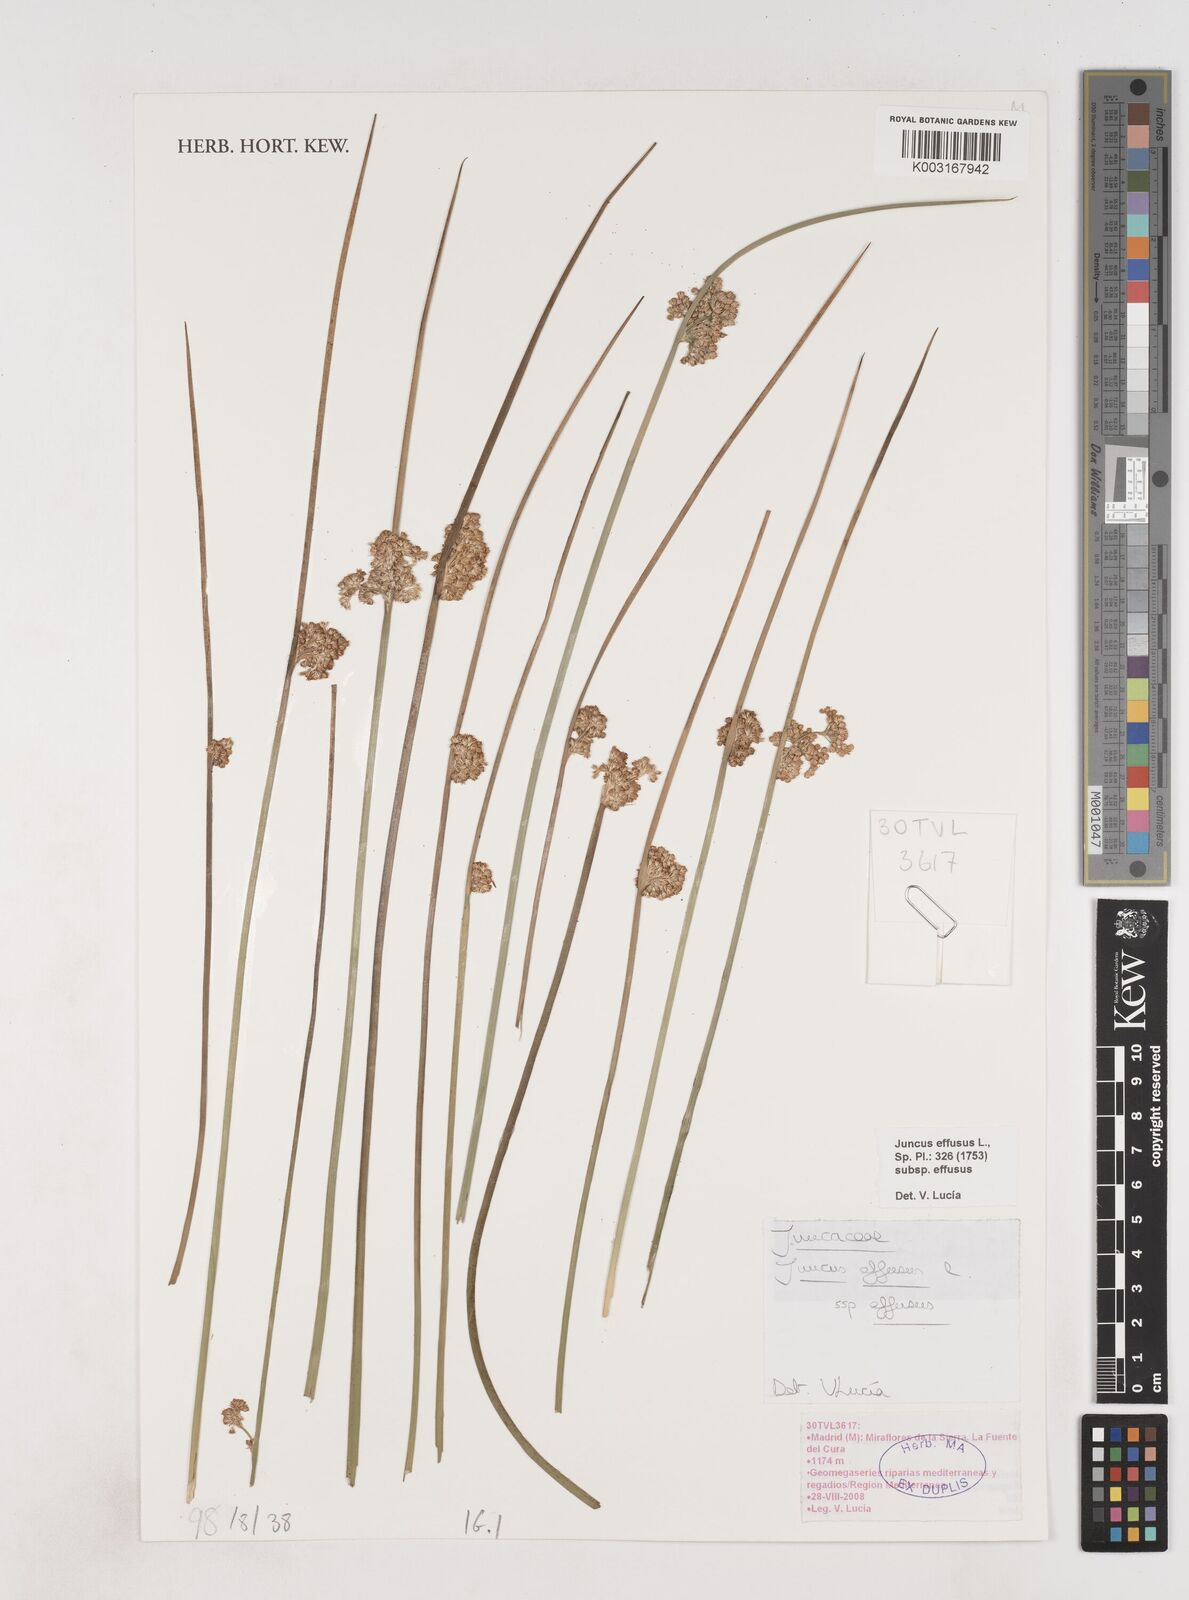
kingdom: Plantae
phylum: Tracheophyta
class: Liliopsida
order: Poales
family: Juncaceae
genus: Juncus
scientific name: Juncus effusus
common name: Soft rush
